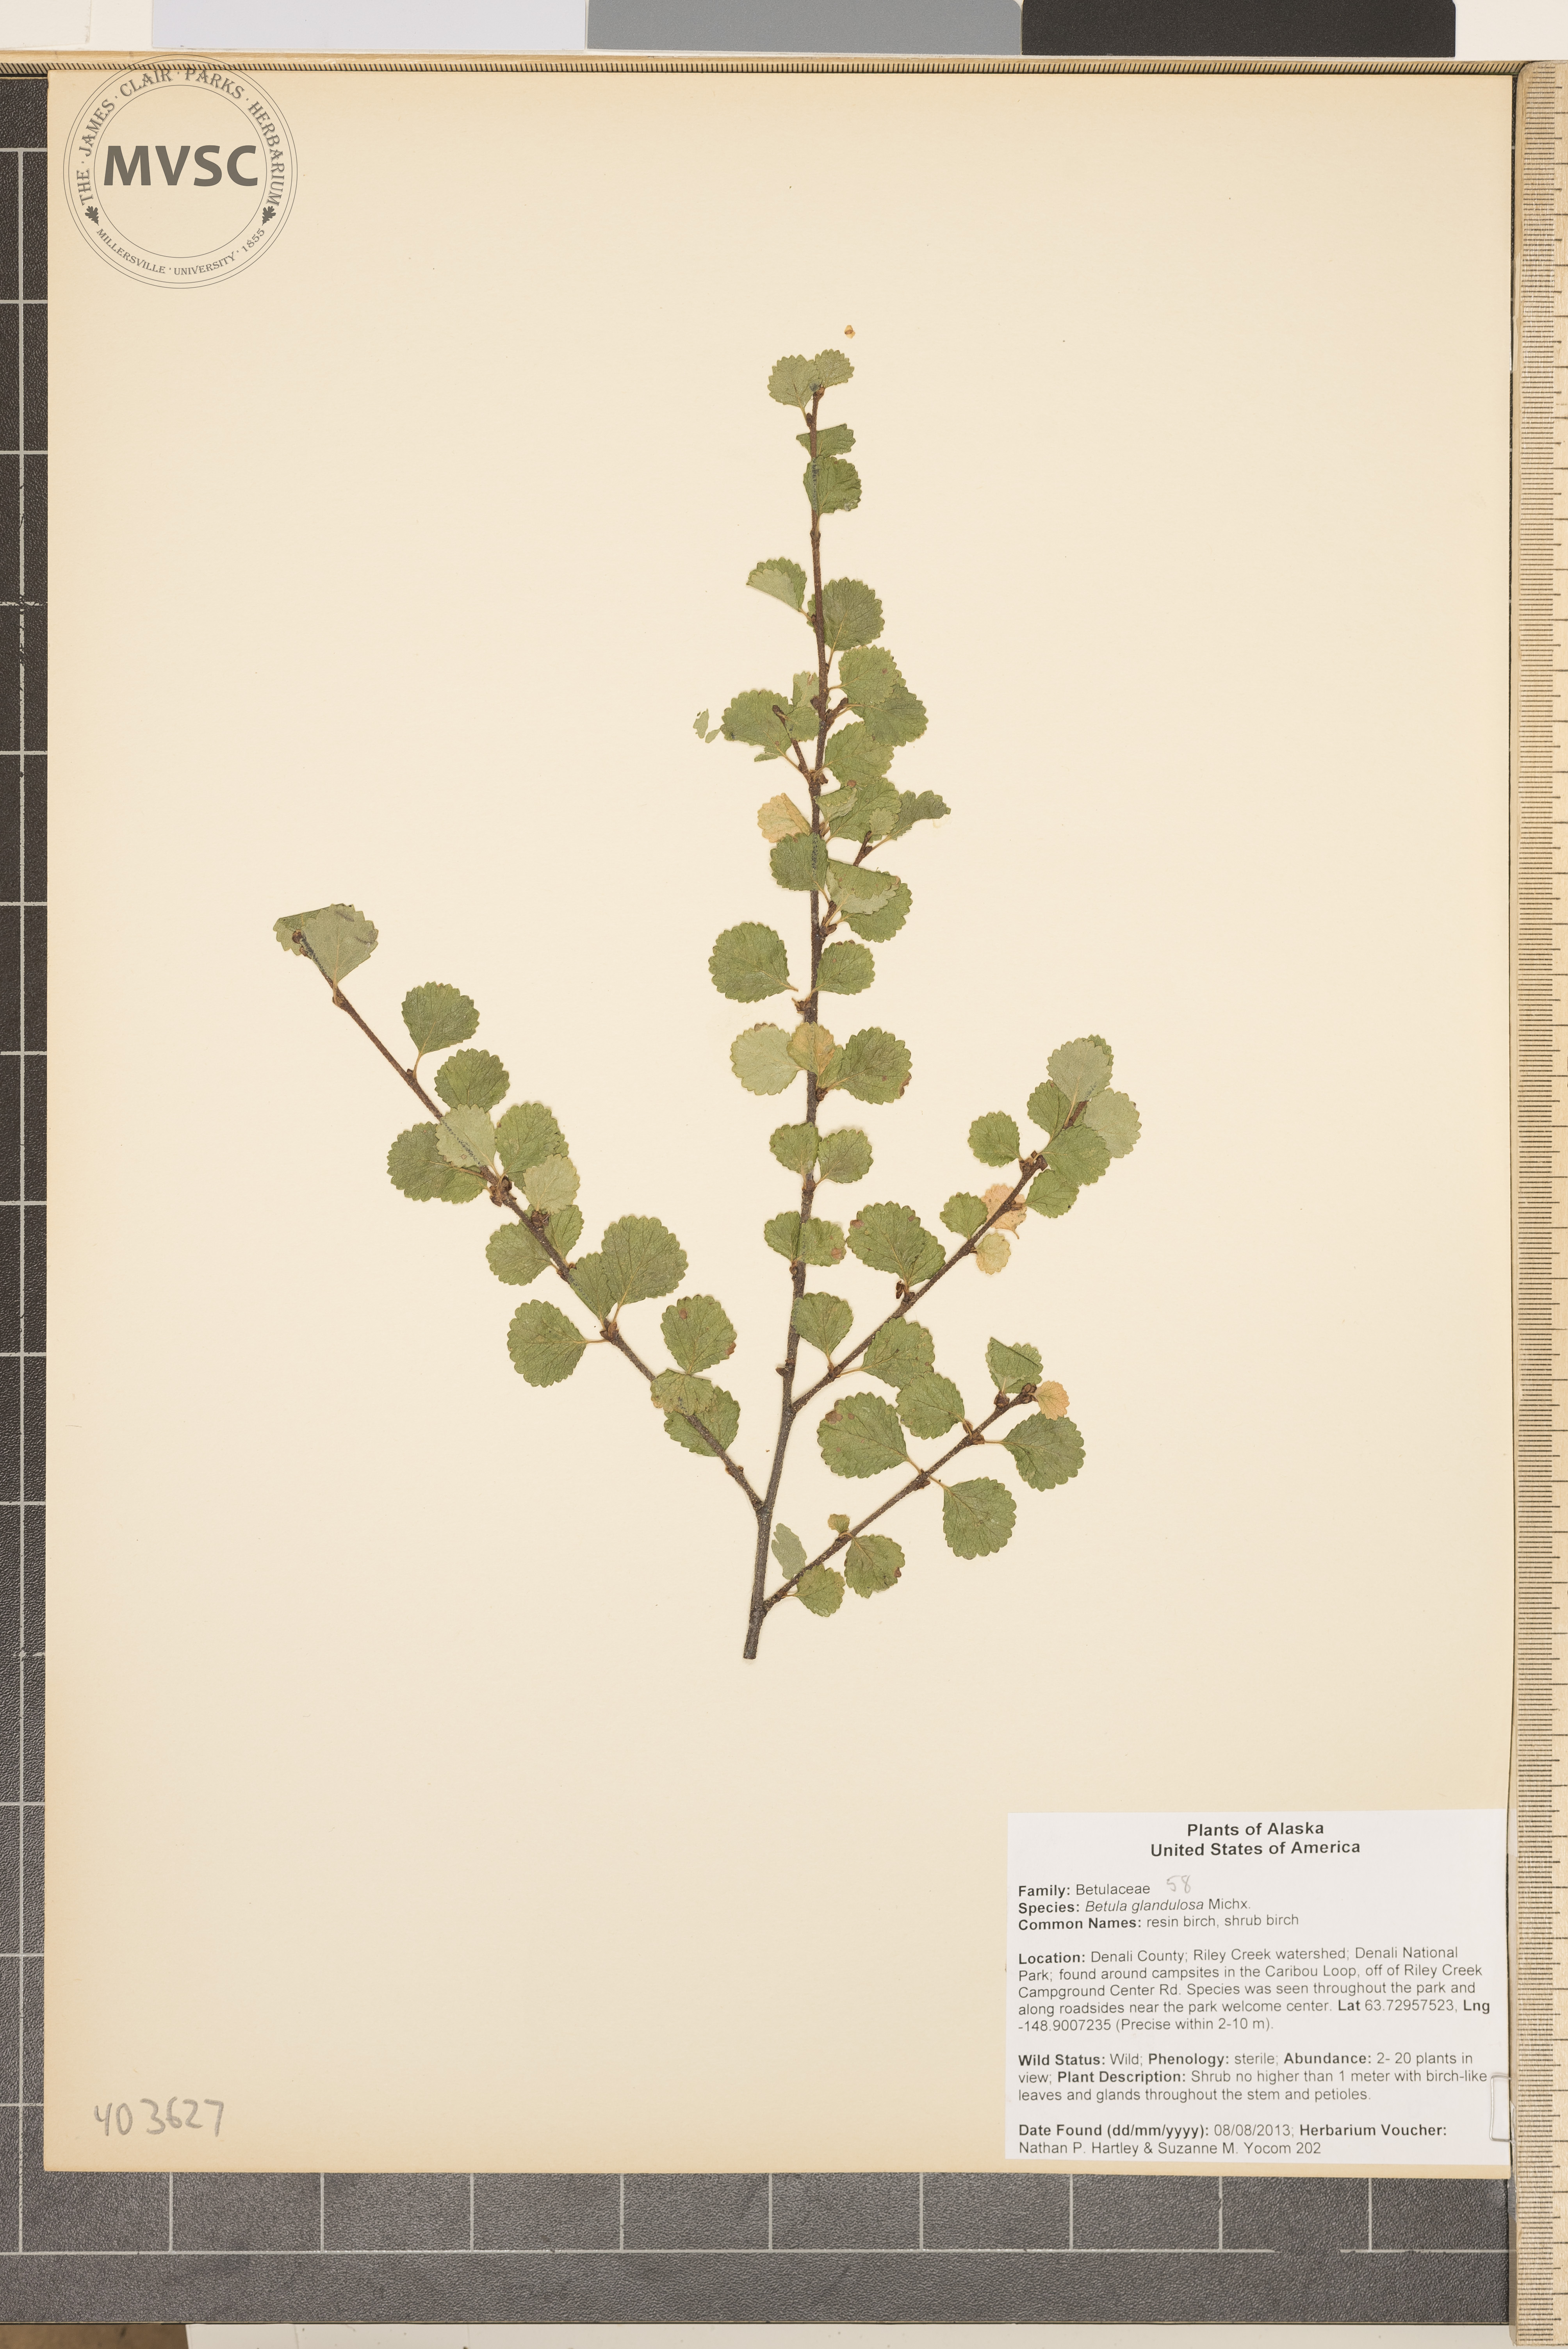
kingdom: Plantae
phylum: Tracheophyta
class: Magnoliopsida
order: Fagales
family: Betulaceae
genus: Betula
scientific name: Betula glandulosa
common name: Dwarf Birch
